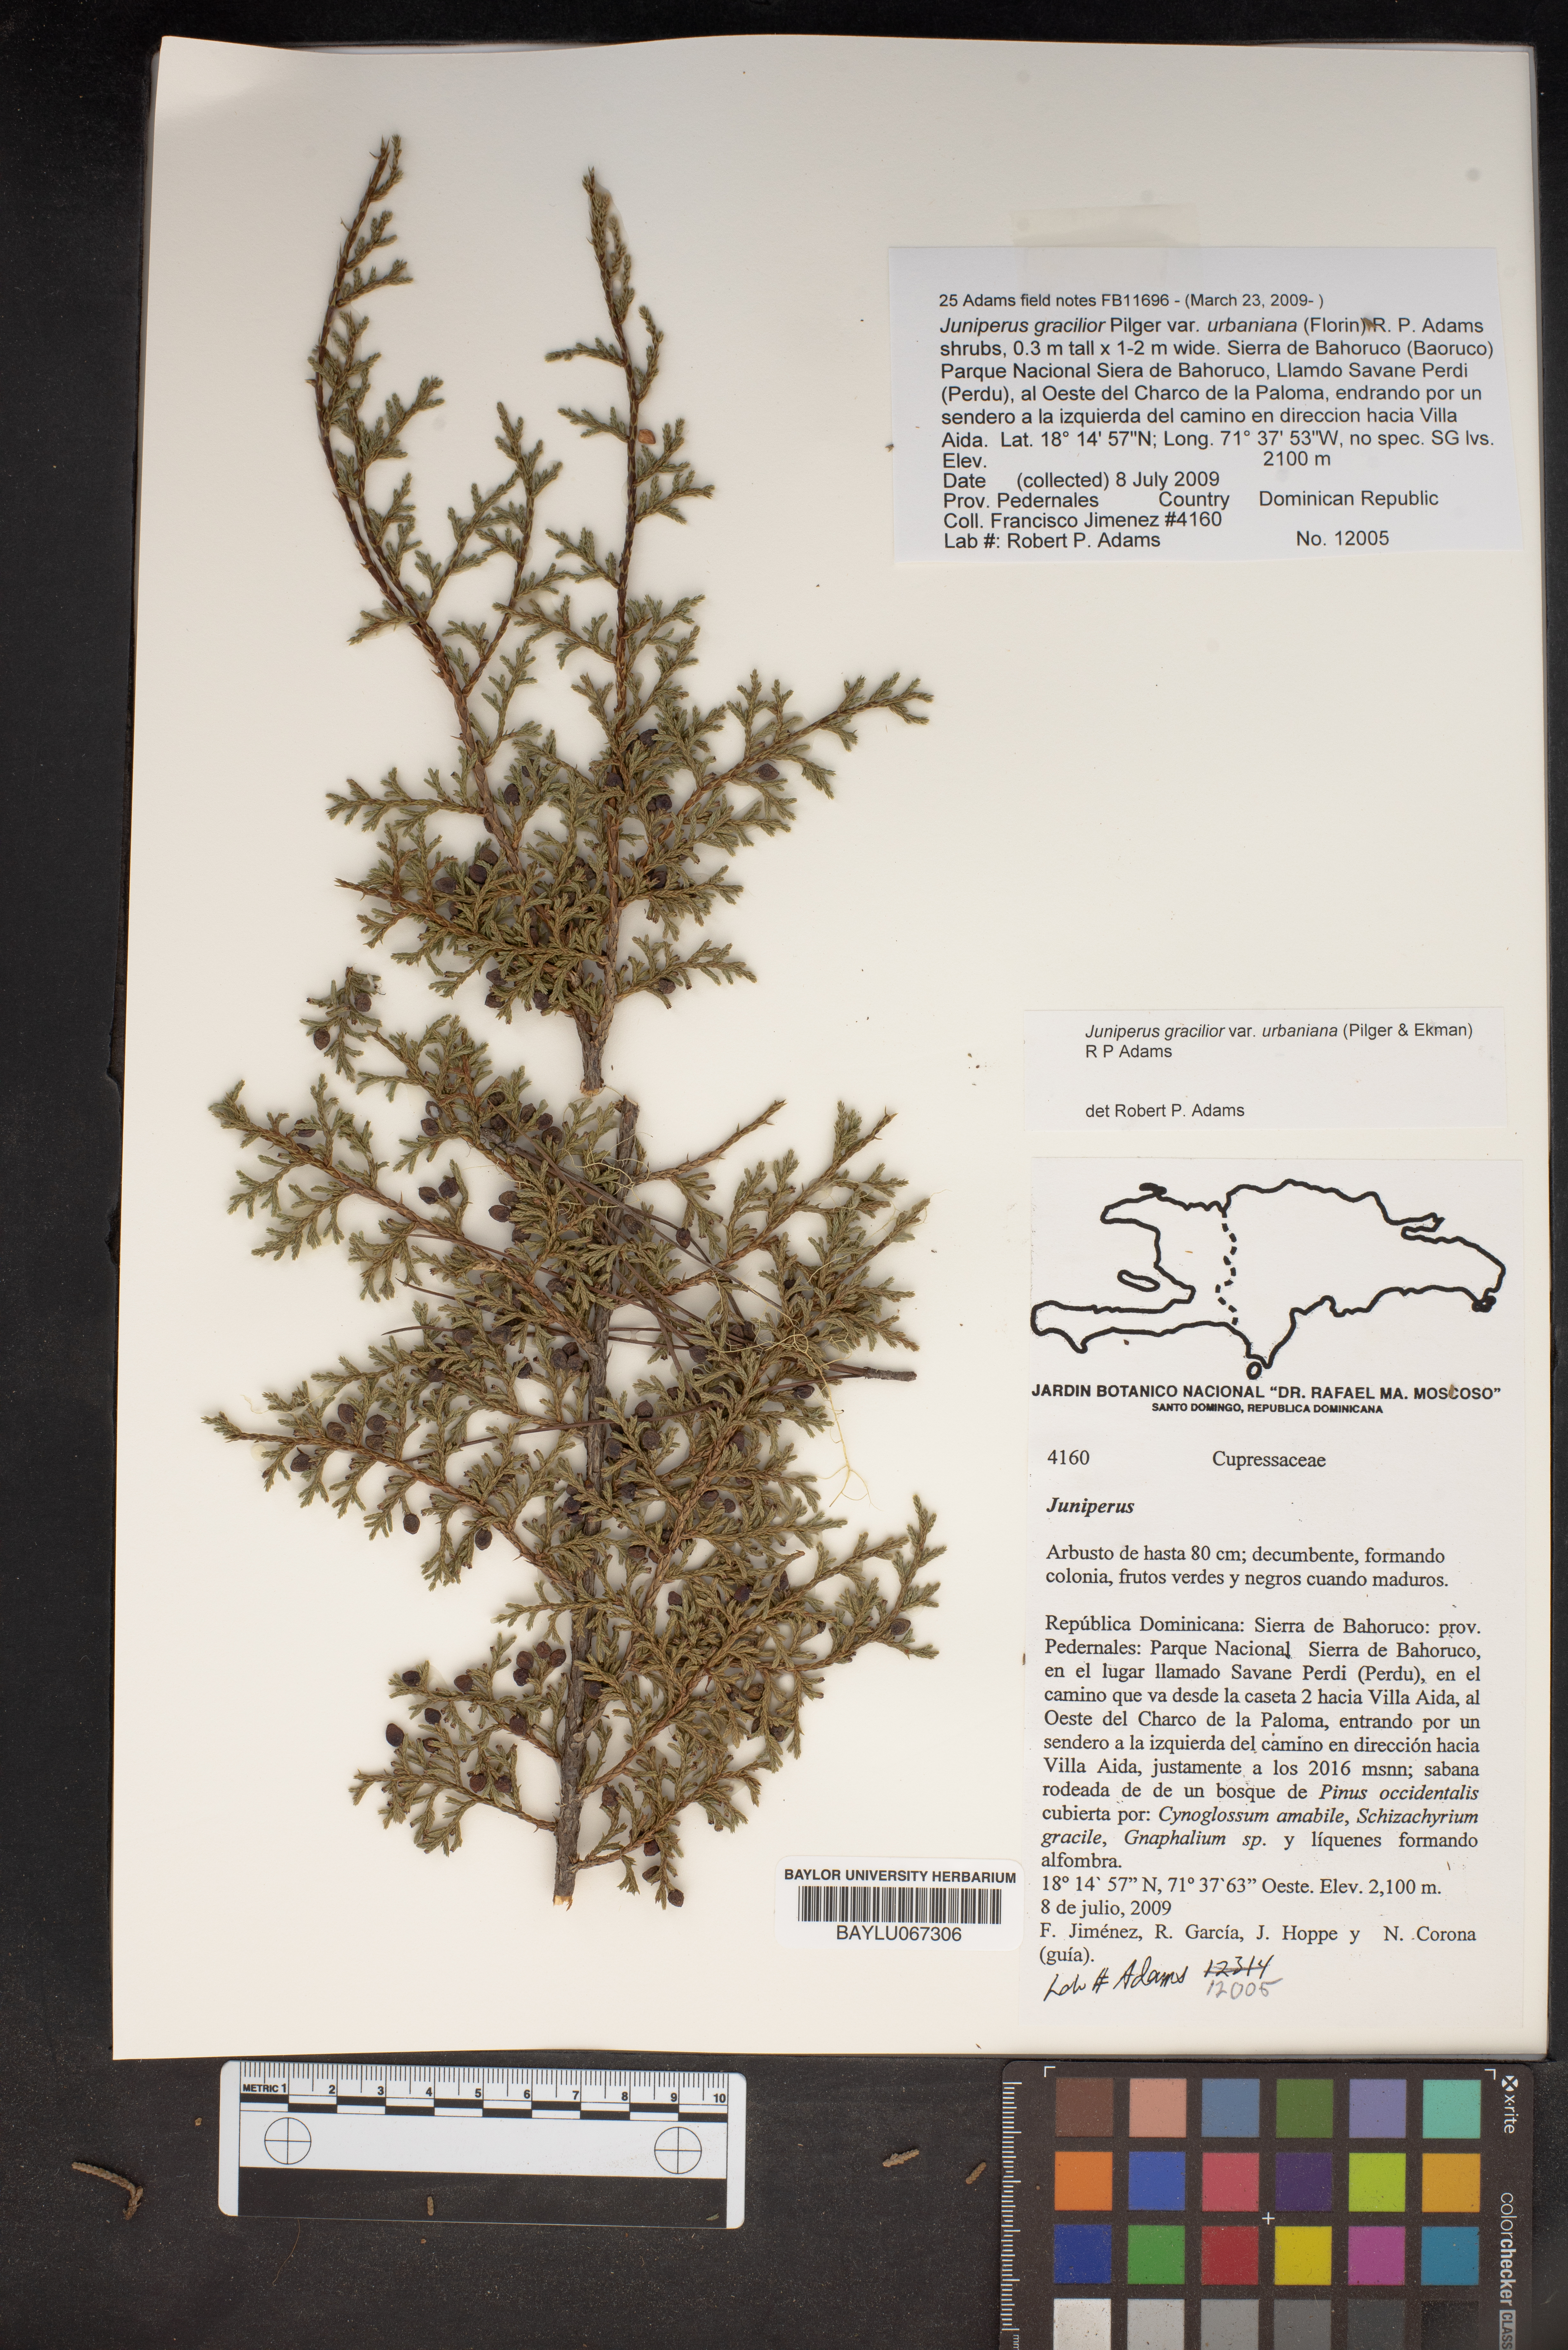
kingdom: Plantae
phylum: Tracheophyta
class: Pinopsida
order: Pinales
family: Cupressaceae
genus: Juniperus
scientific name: Juniperus gracilior
